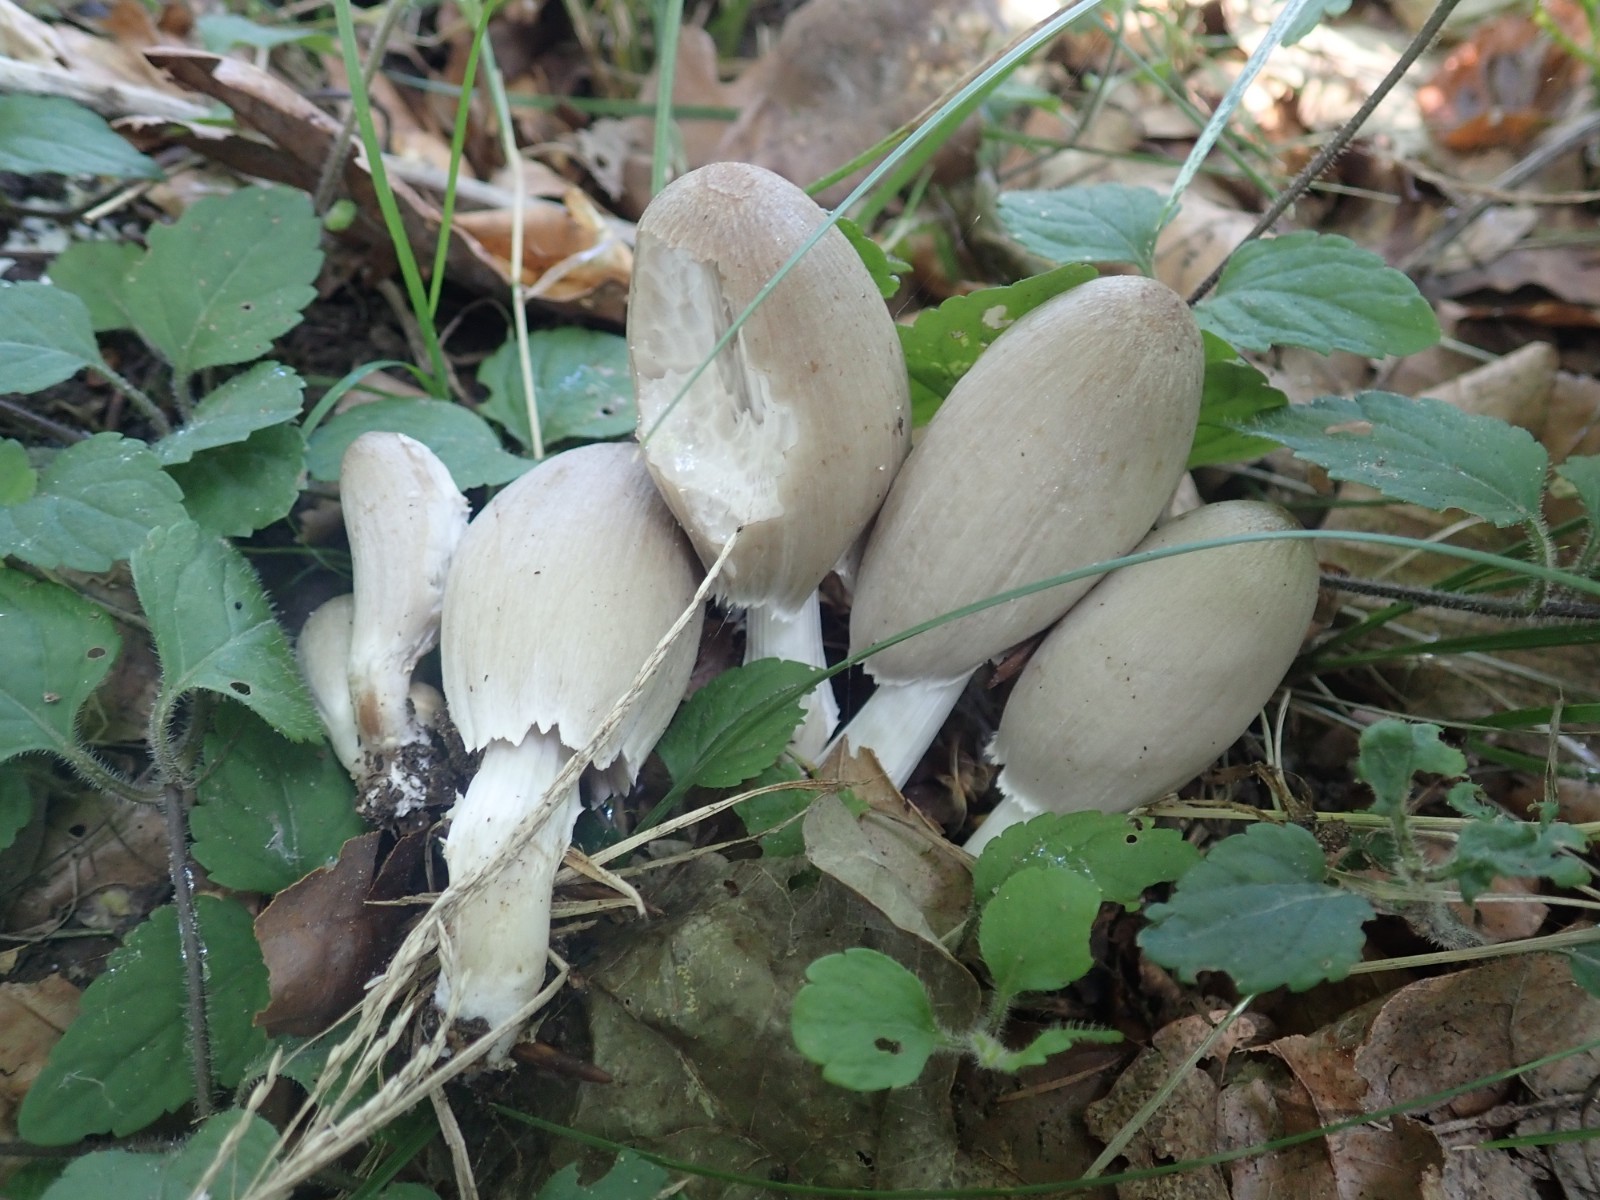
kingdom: Fungi
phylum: Basidiomycota
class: Agaricomycetes
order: Agaricales
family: Psathyrellaceae
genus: Coprinopsis
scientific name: Coprinopsis atramentaria
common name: almindelig blækhat
